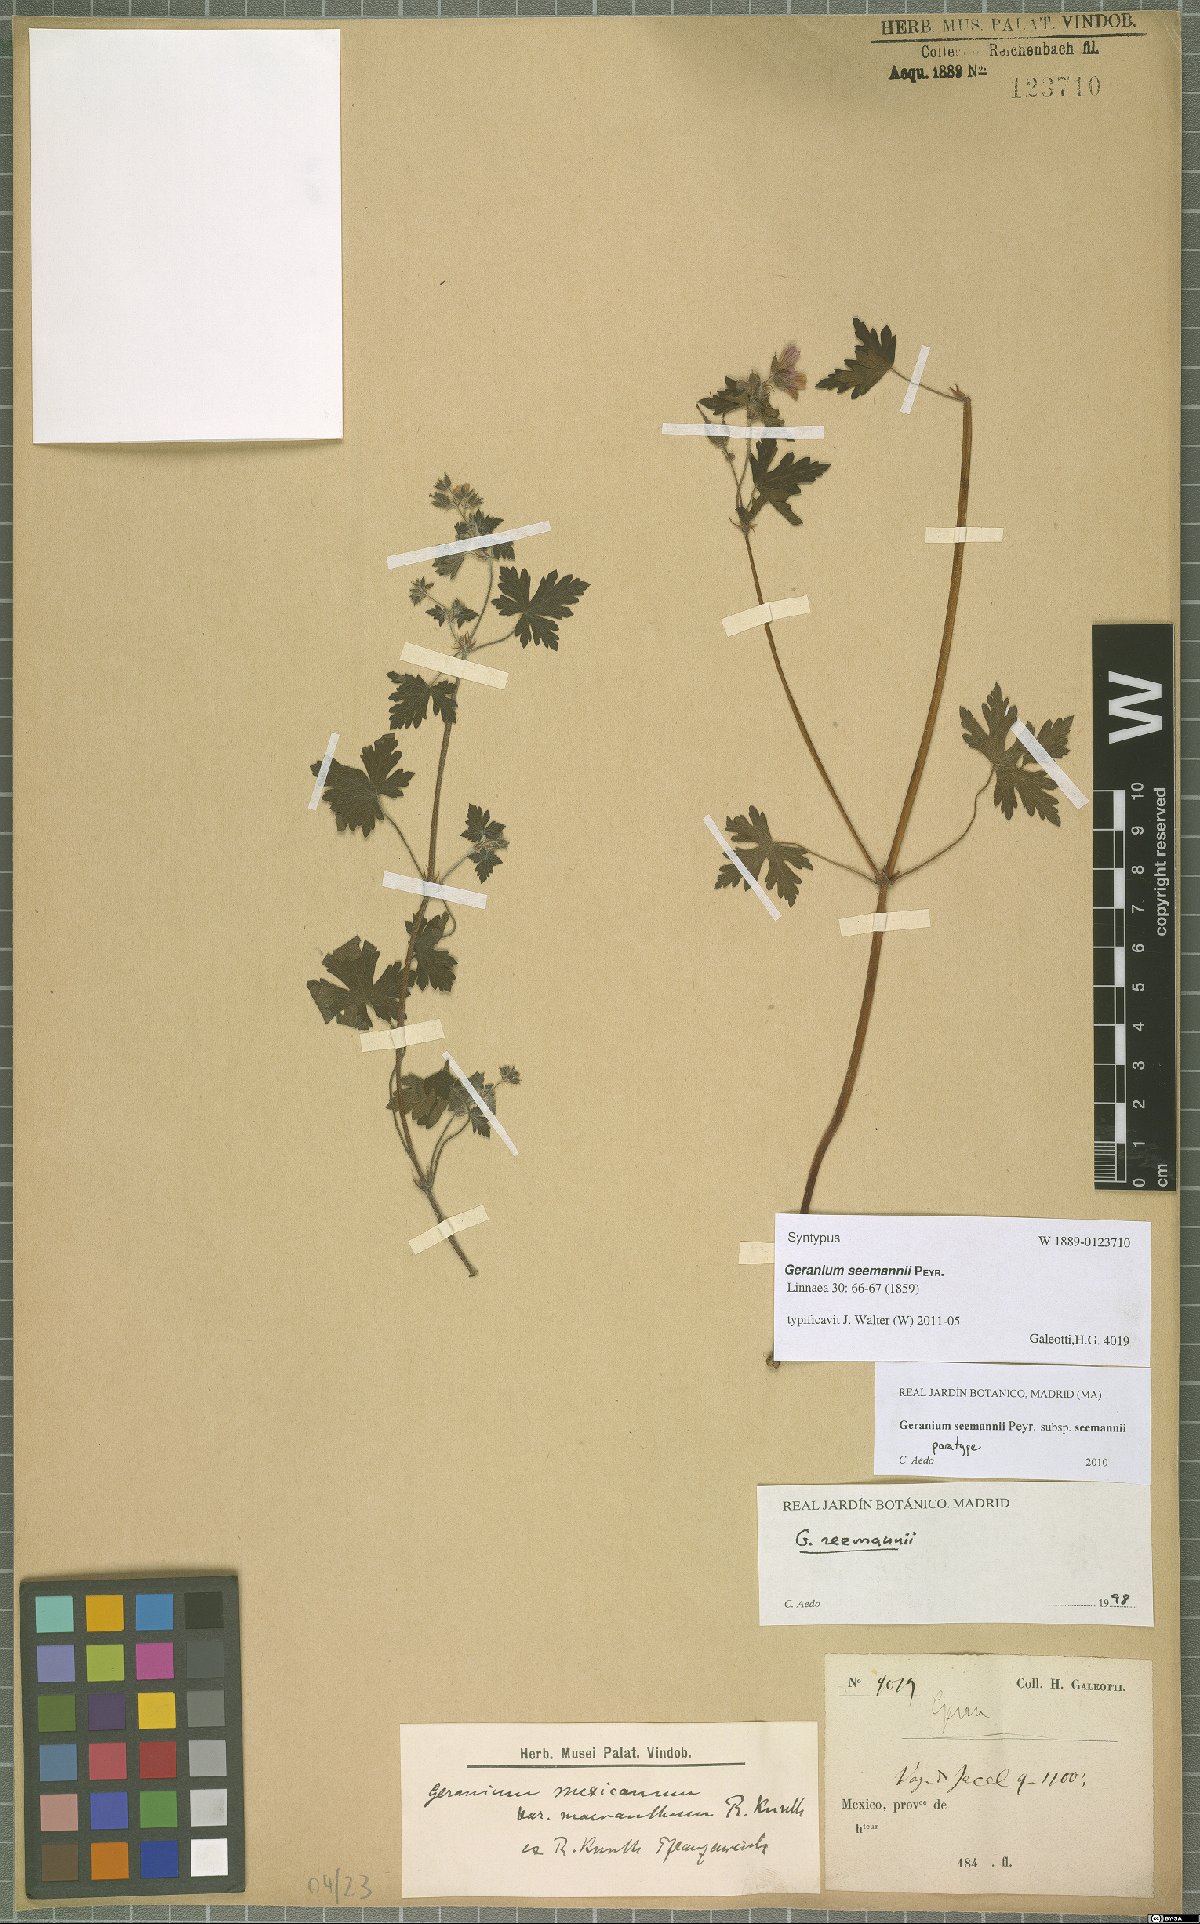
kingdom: Plantae
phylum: Tracheophyta
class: Magnoliopsida
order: Geraniales
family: Geraniaceae
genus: Geranium
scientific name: Geranium seemannii
